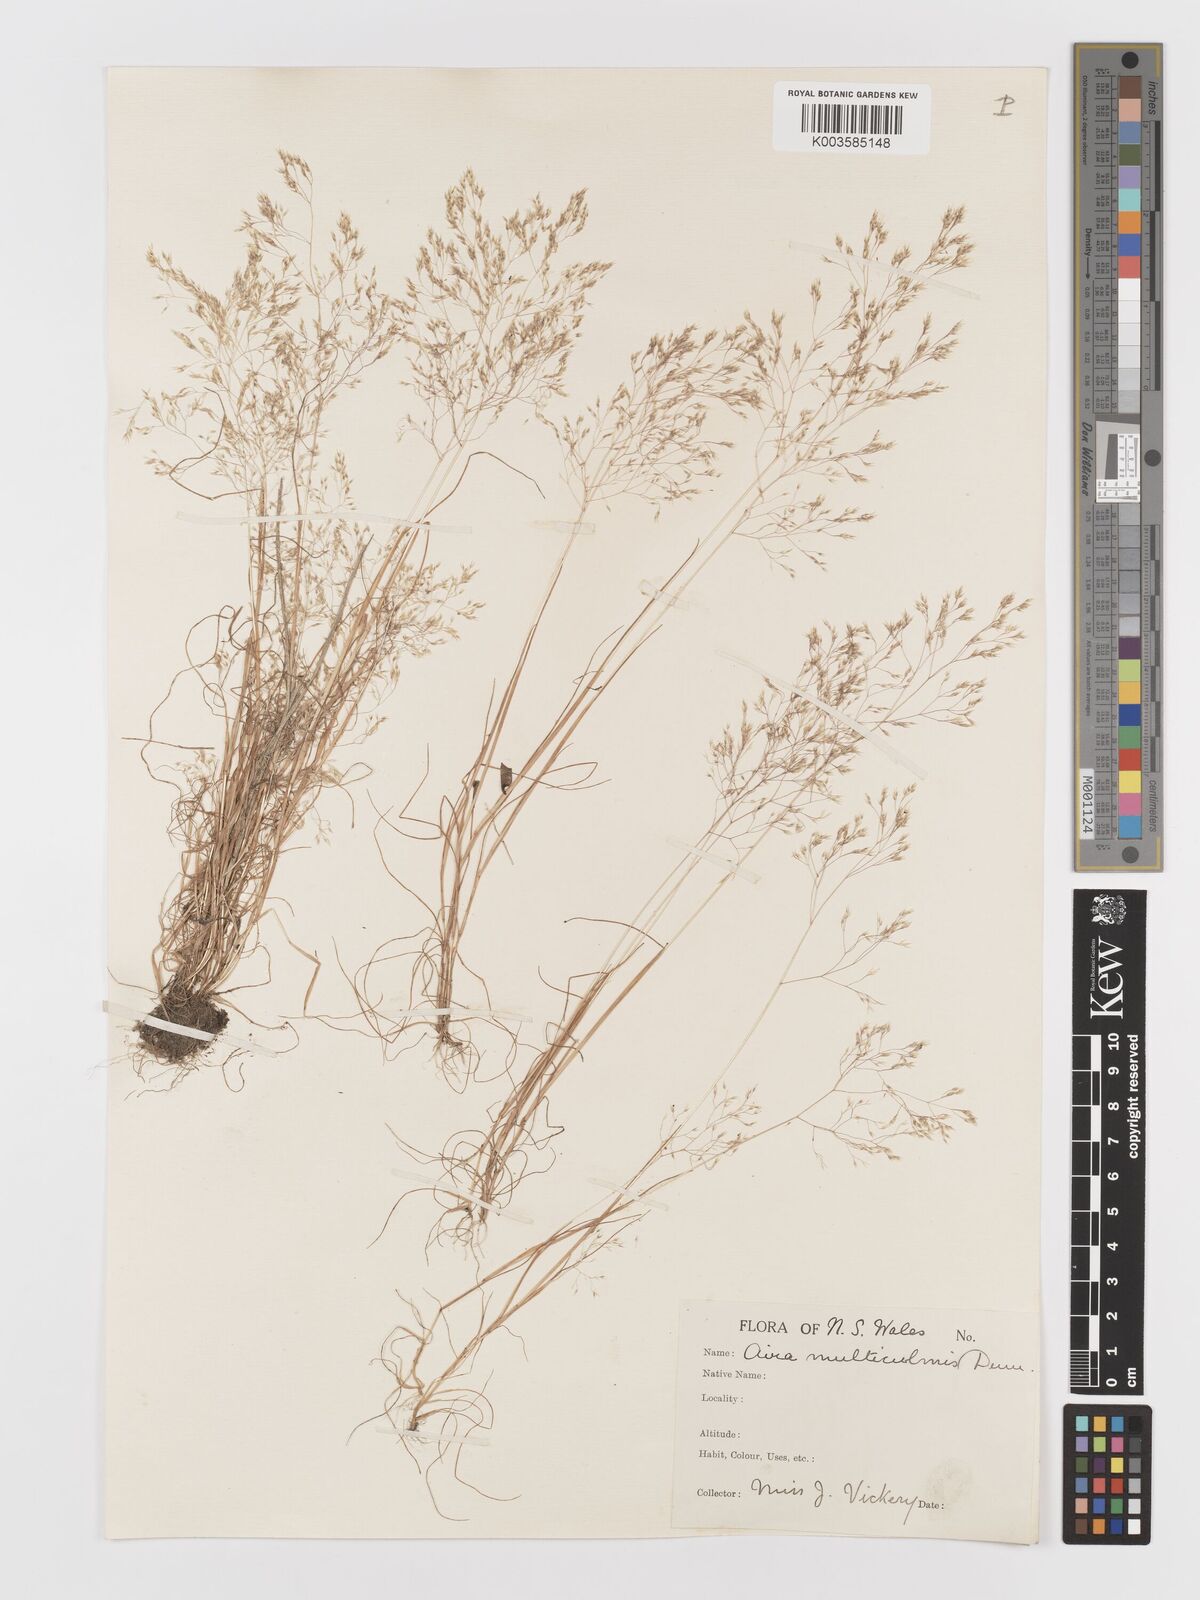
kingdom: Plantae
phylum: Tracheophyta
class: Liliopsida
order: Poales
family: Poaceae
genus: Aira
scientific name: Aira cupaniana
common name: Silver hairgrass
